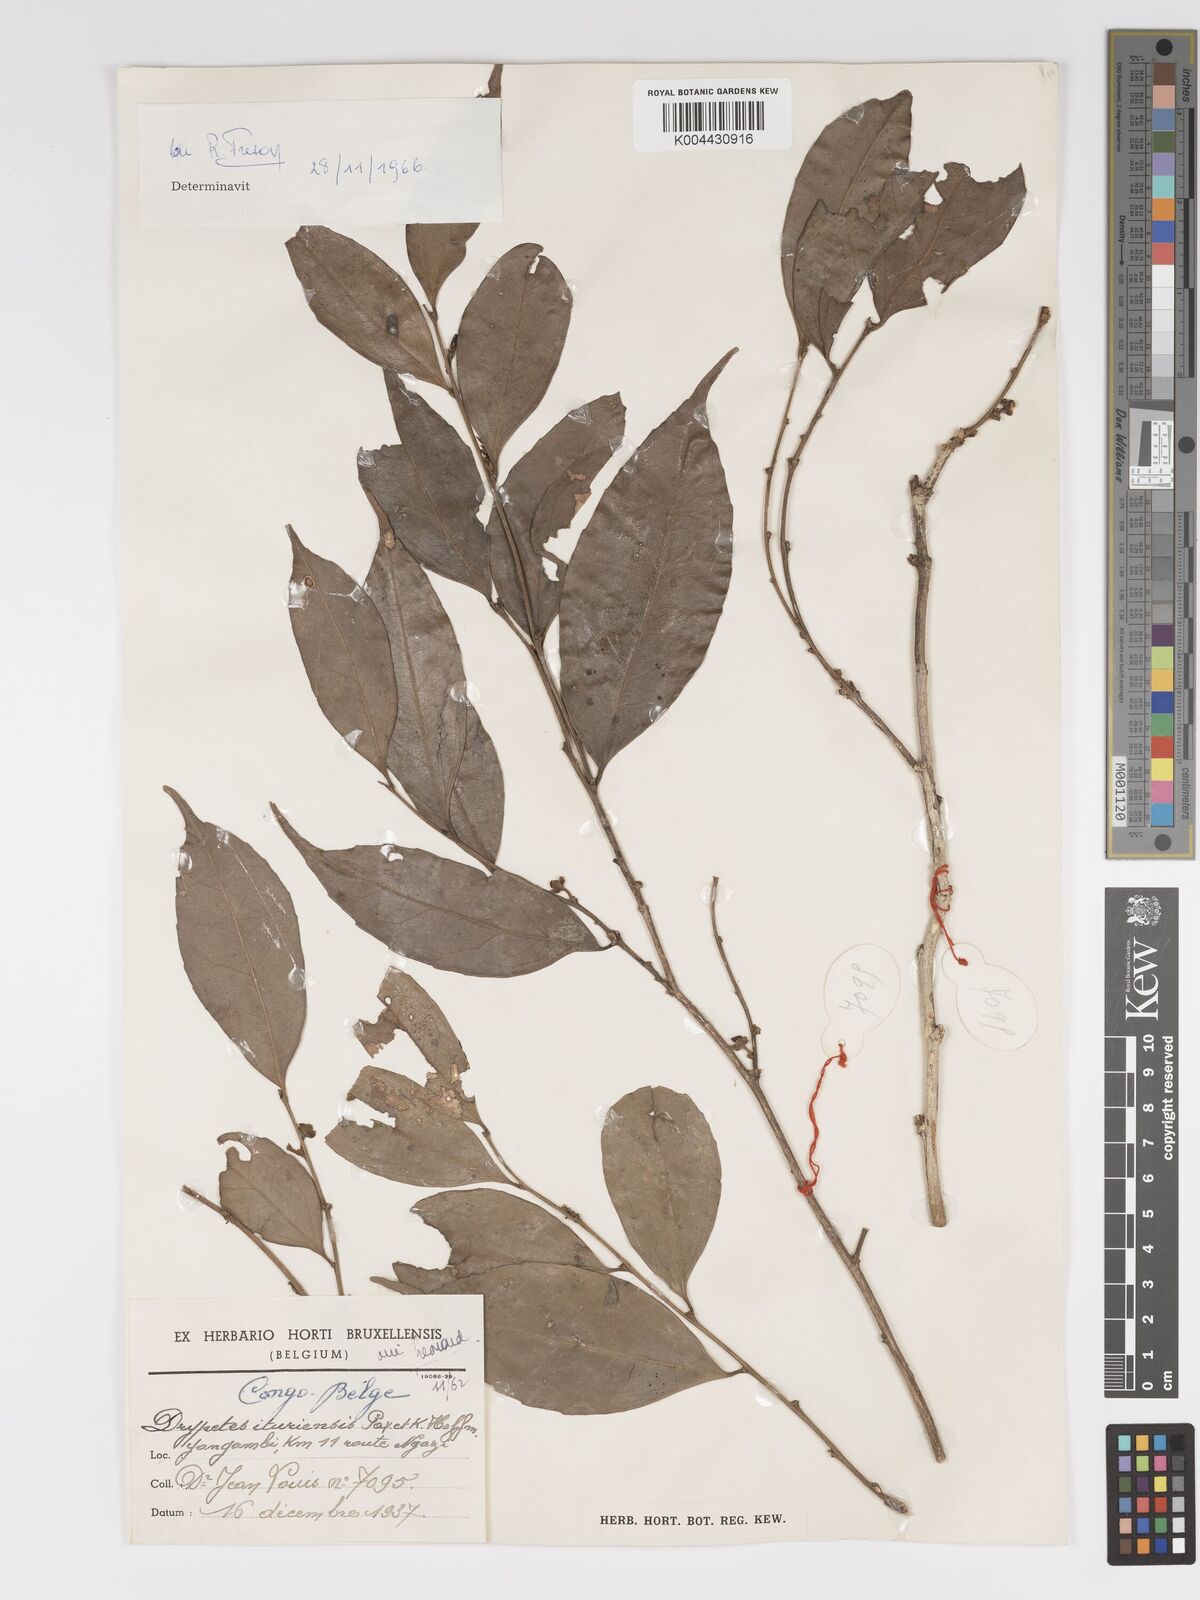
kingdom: Plantae
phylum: Tracheophyta
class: Magnoliopsida
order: Malpighiales
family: Putranjivaceae
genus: Drypetes
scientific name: Drypetes ituriensis
